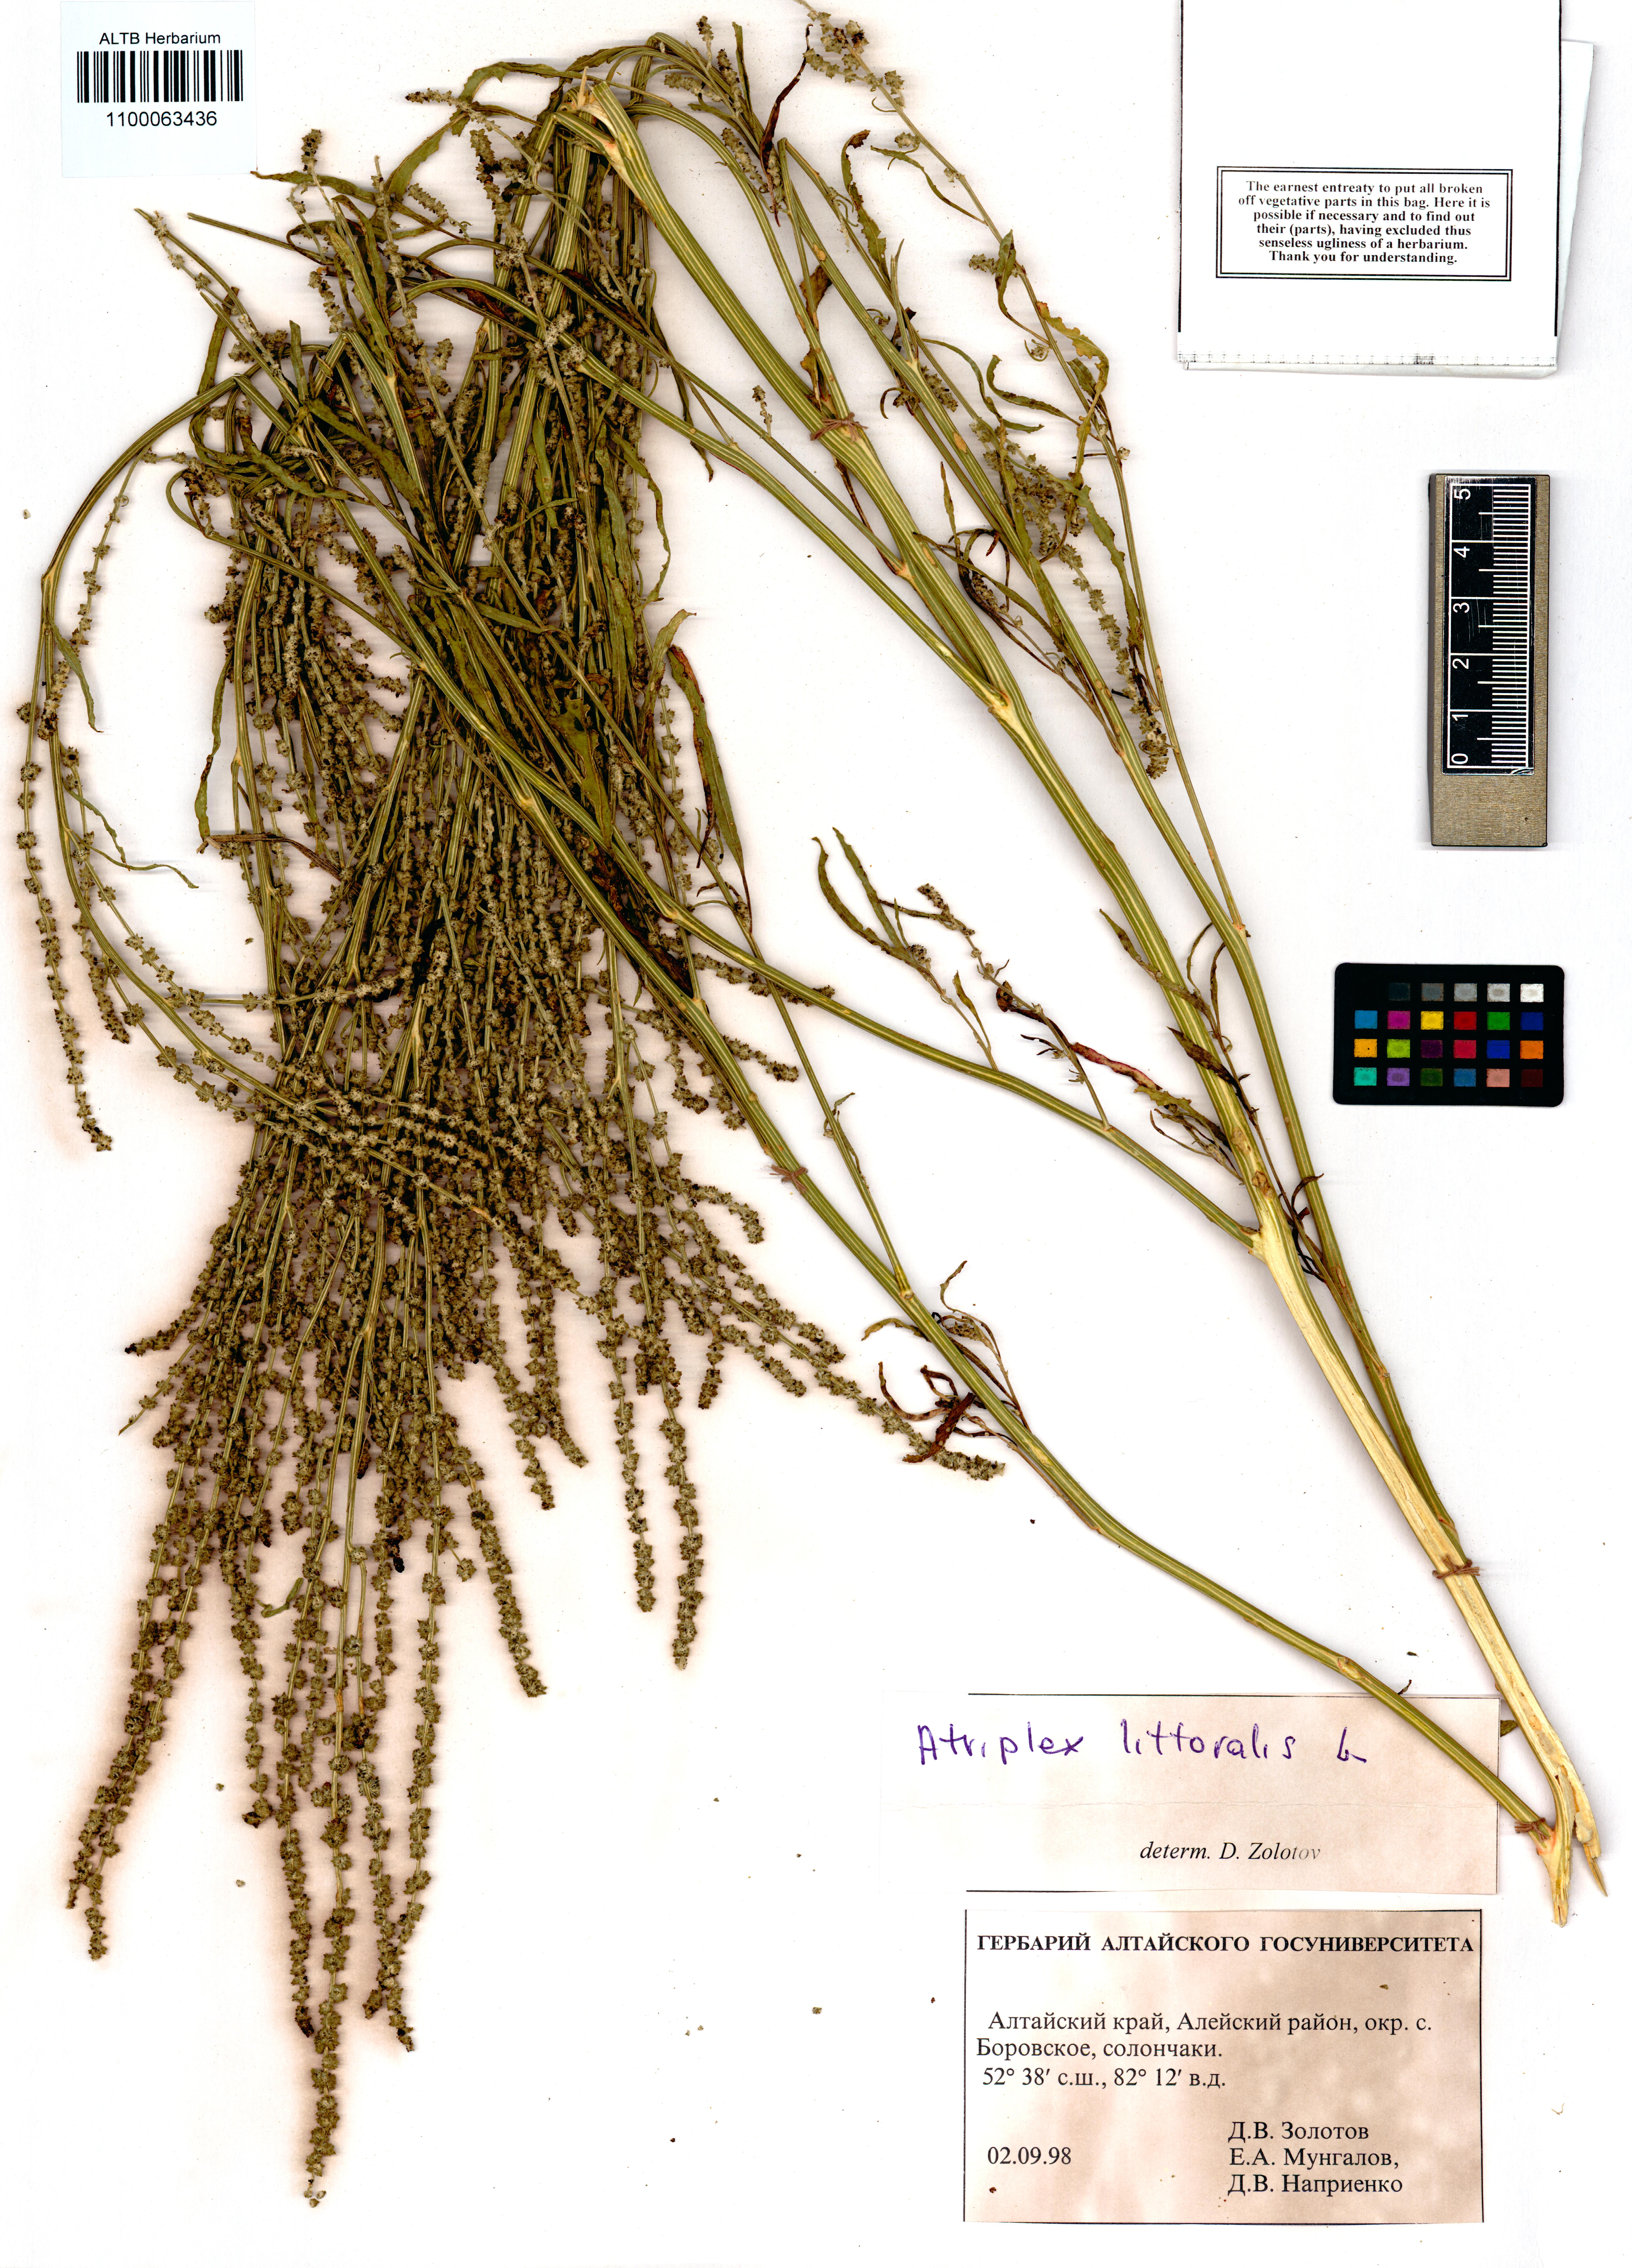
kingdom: Plantae
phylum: Tracheophyta
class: Magnoliopsida
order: Caryophyllales
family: Amaranthaceae
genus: Atriplex
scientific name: Atriplex littoralis
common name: Grass-leaved orache
